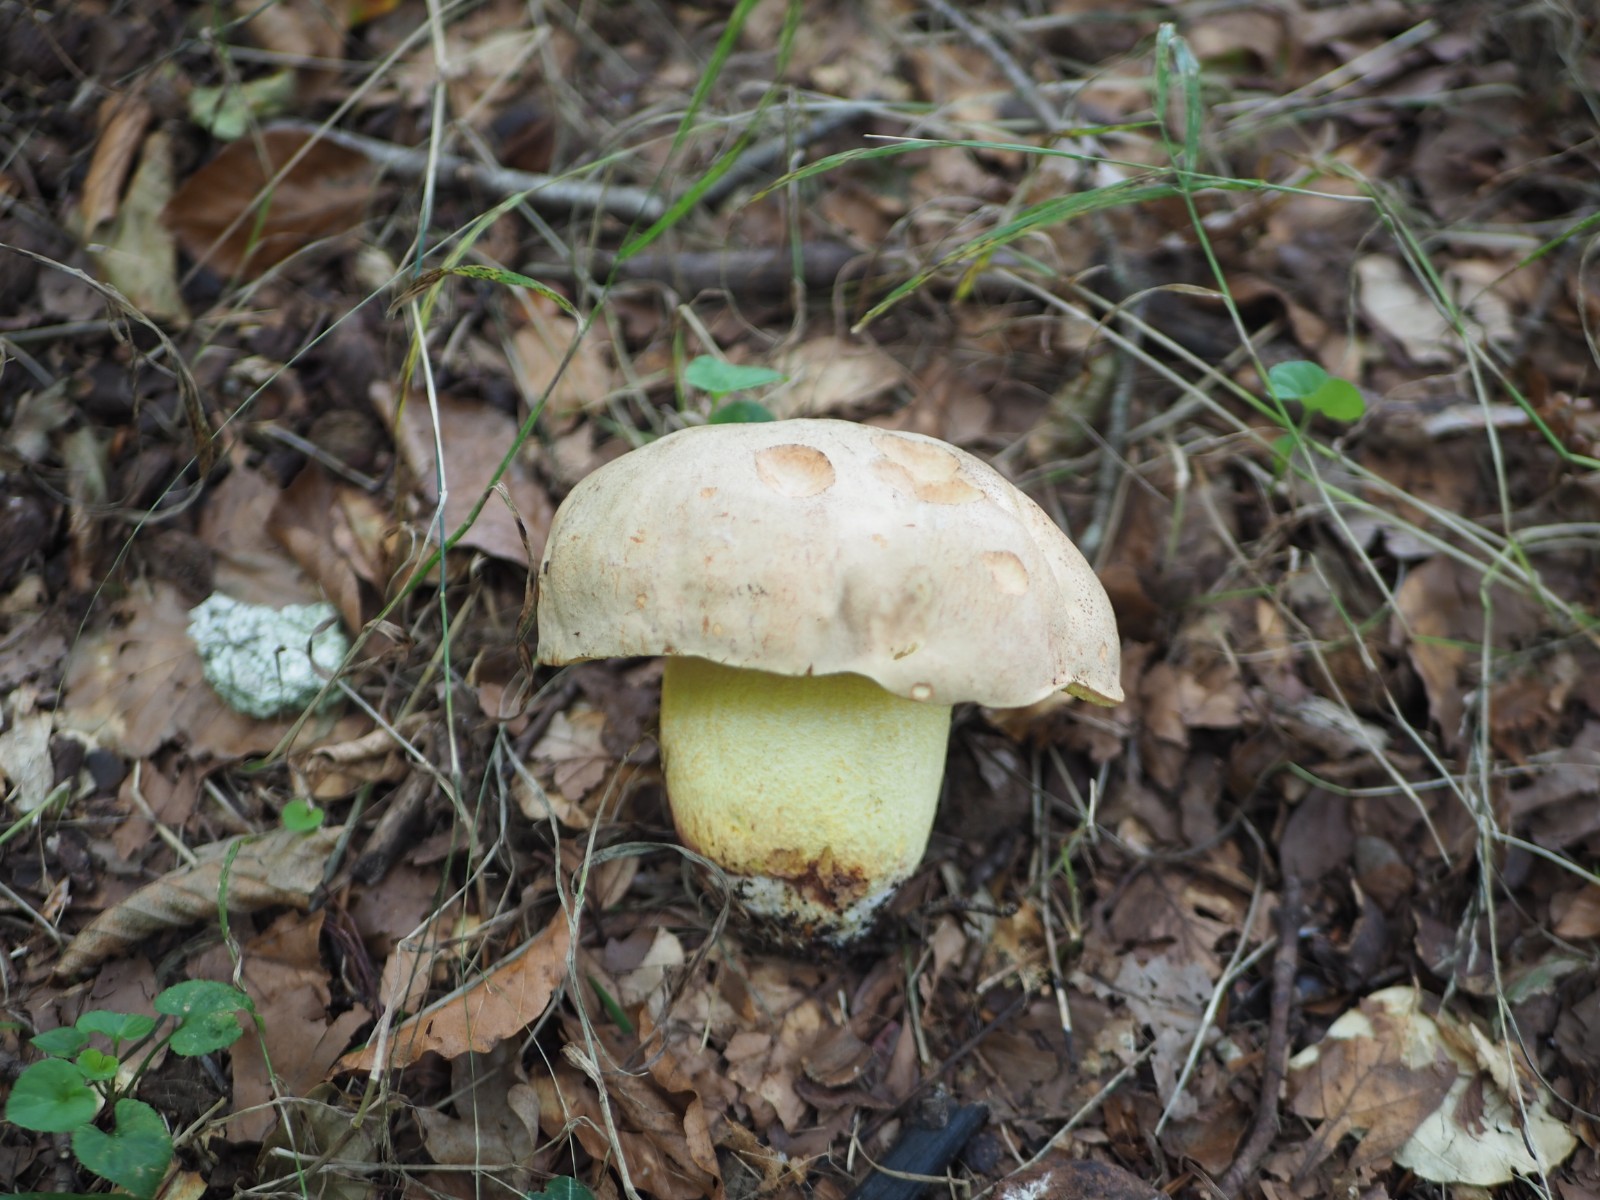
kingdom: Fungi
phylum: Basidiomycota
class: Agaricomycetes
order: Boletales
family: Boletaceae
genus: Hemileccinum
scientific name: Hemileccinum impolitum
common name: bleg rørhat
